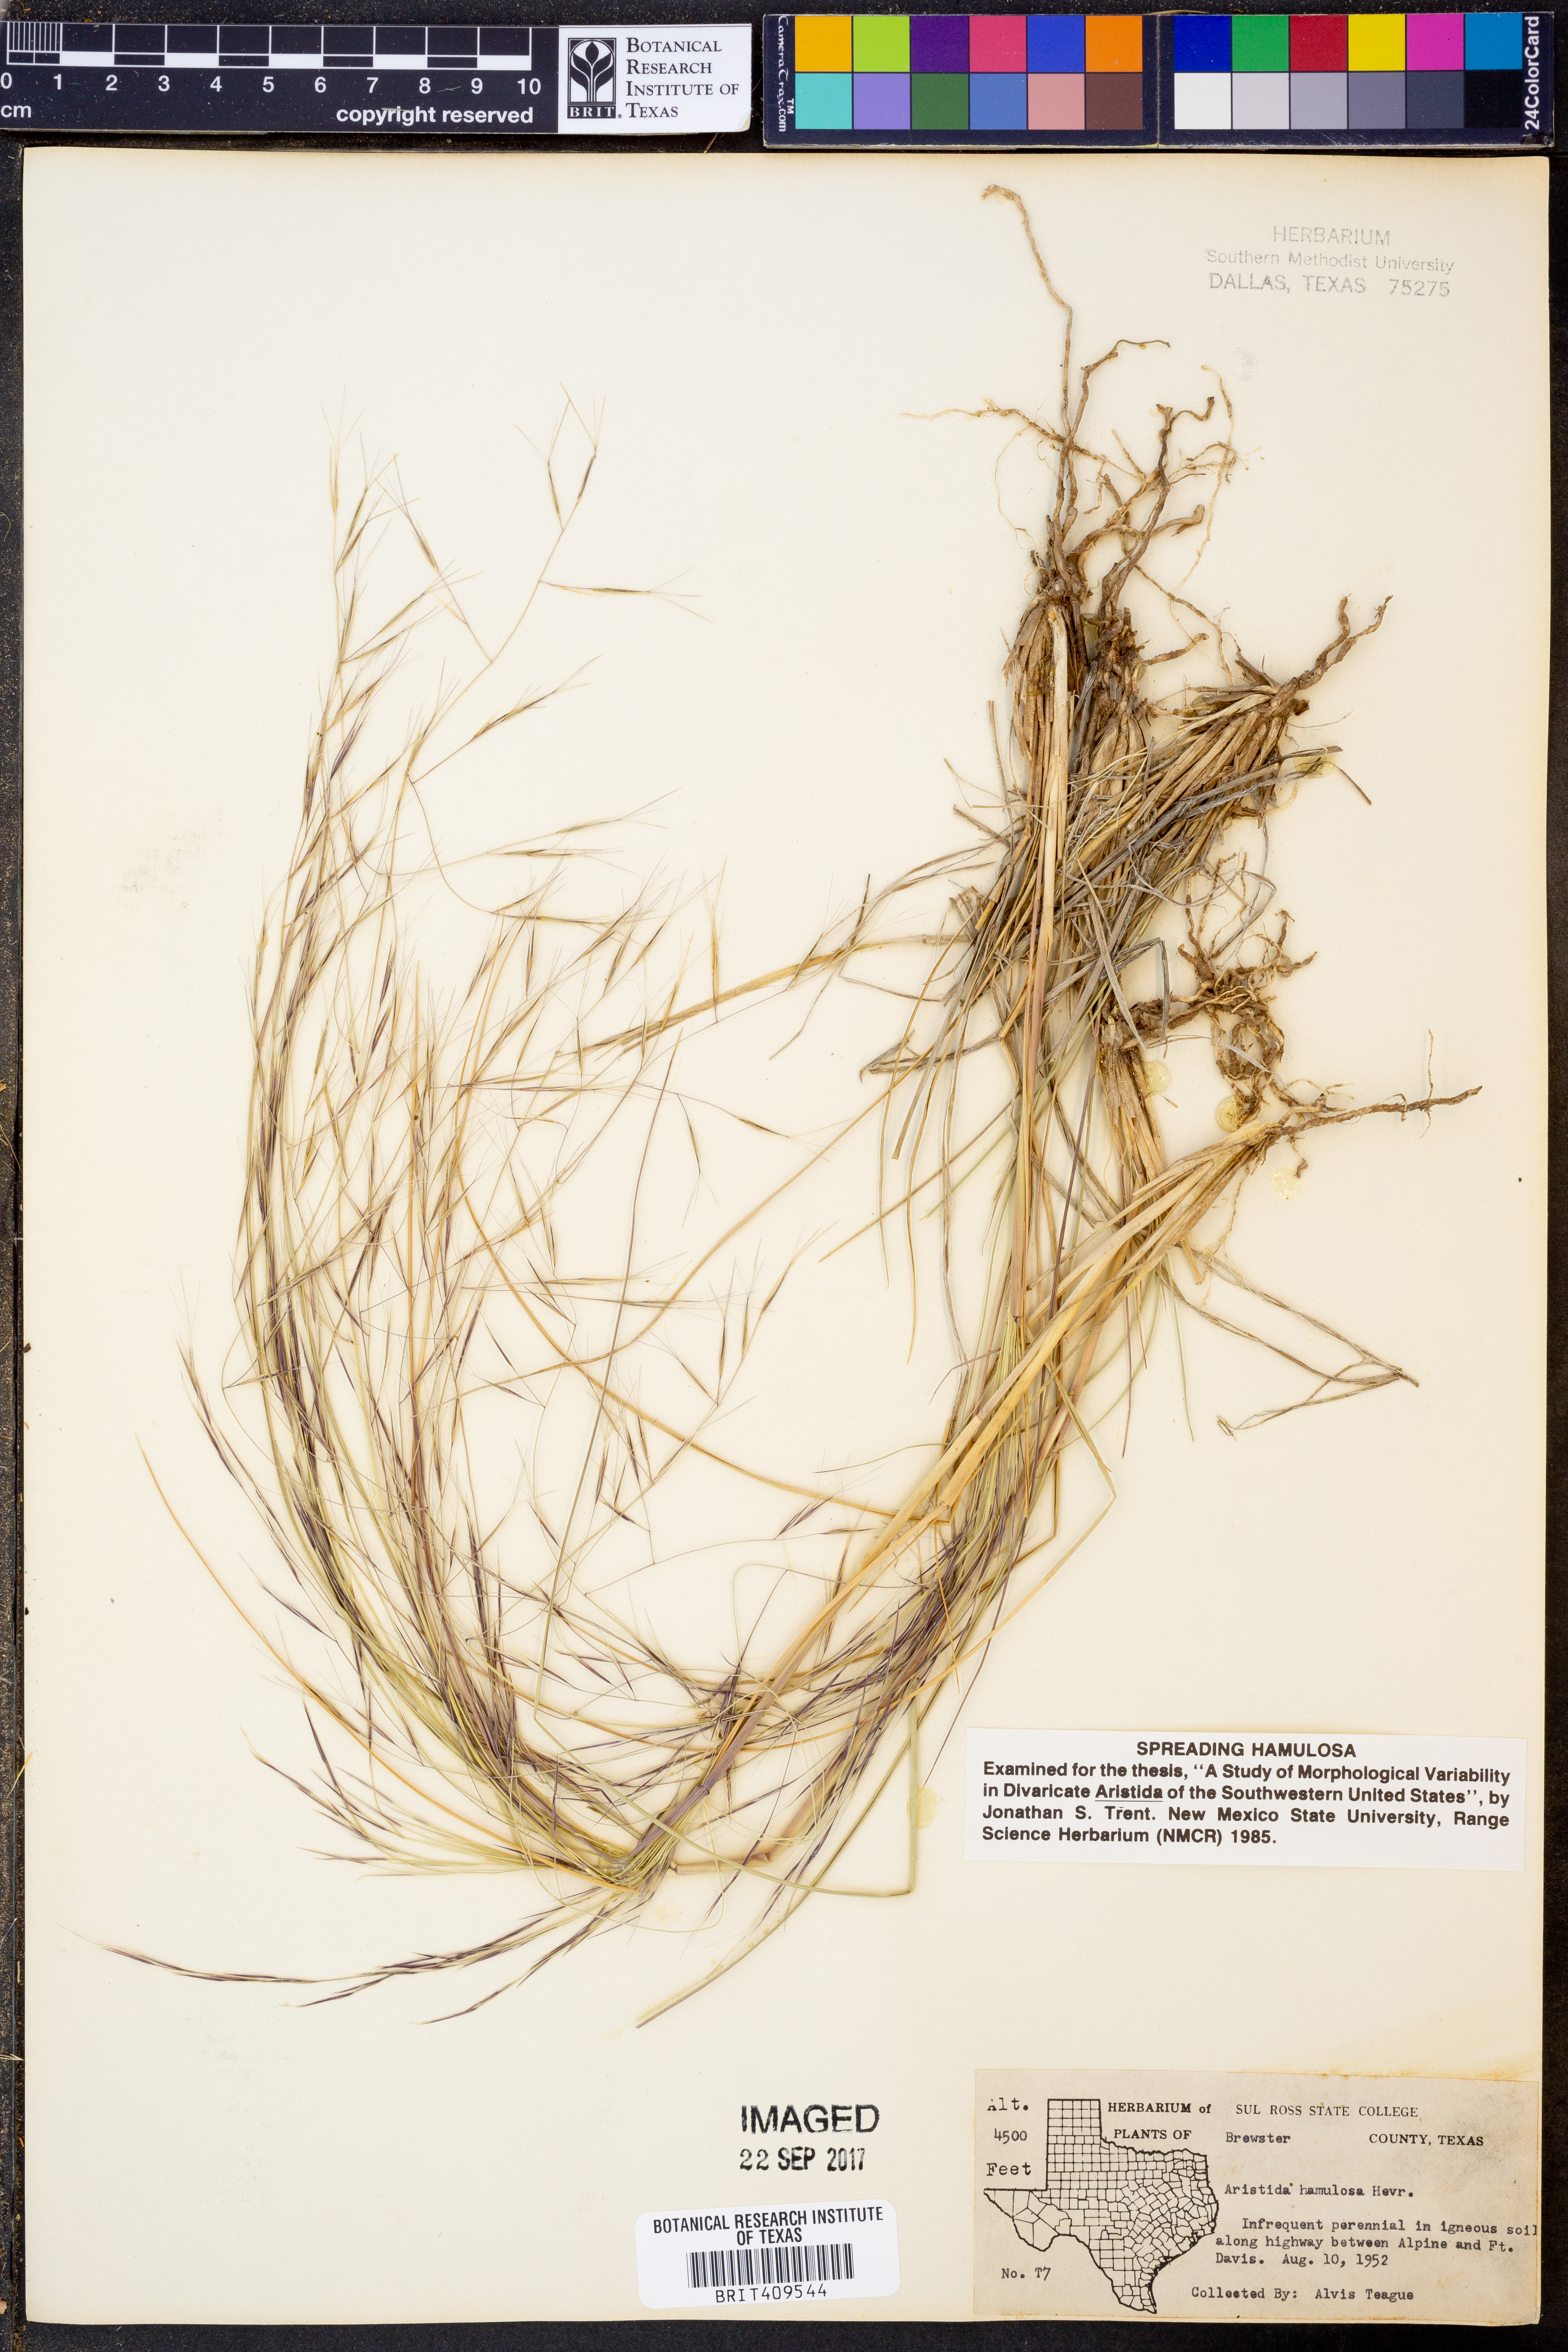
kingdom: Plantae
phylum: Tracheophyta
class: Liliopsida
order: Poales
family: Poaceae
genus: Aristida
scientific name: Aristida hamulosa
